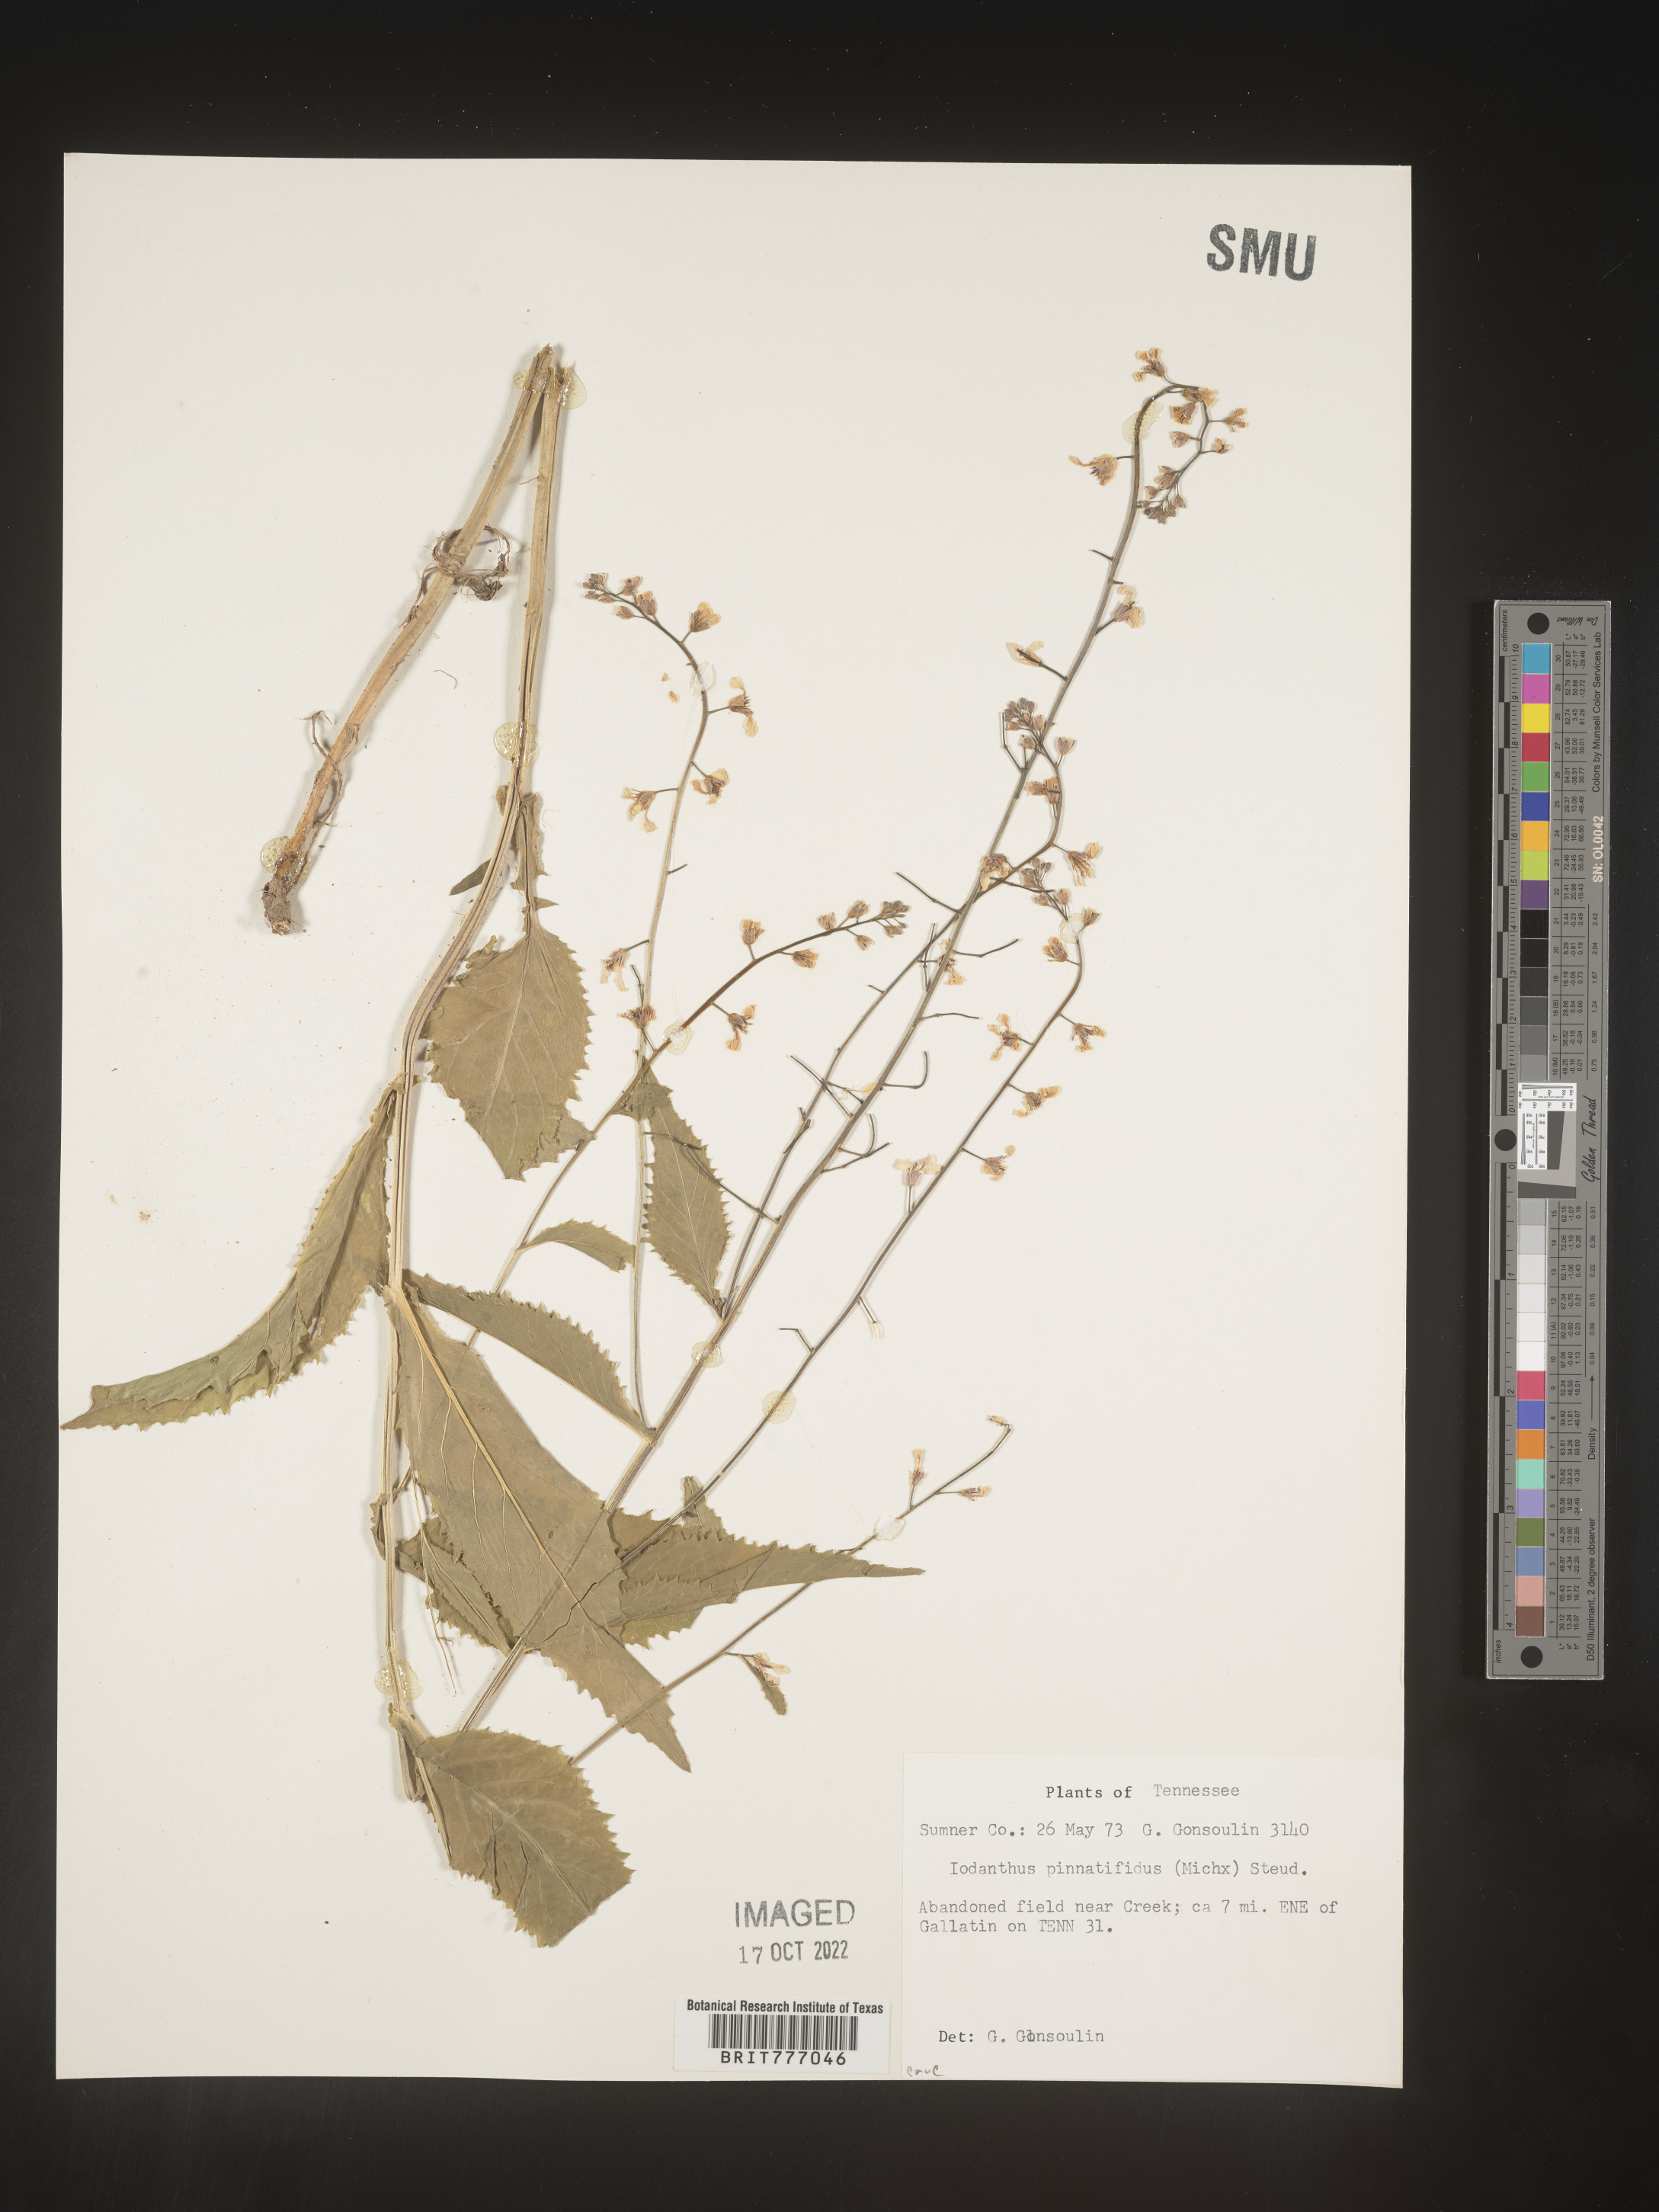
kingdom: Plantae
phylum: Tracheophyta
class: Magnoliopsida
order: Brassicales
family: Brassicaceae
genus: Iodanthus
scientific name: Iodanthus
